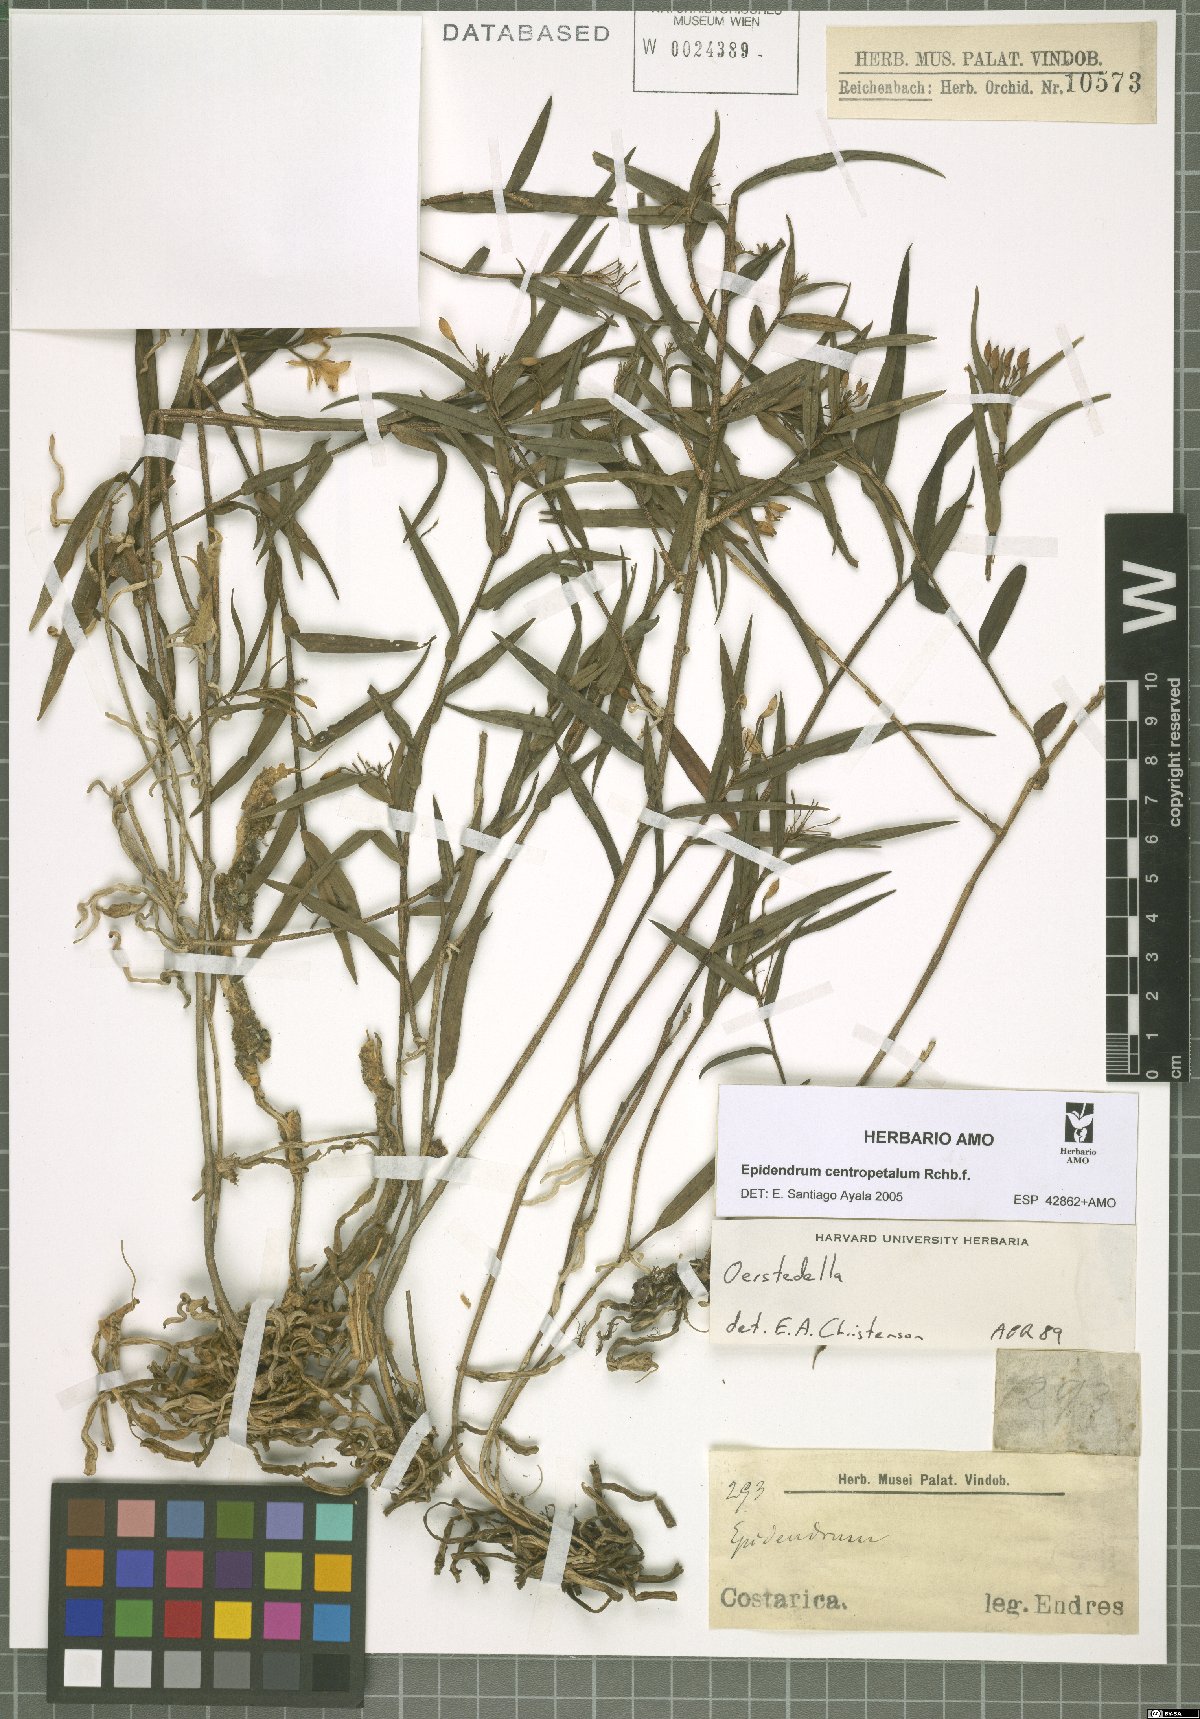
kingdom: Plantae
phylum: Tracheophyta
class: Liliopsida
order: Asparagales
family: Orchidaceae
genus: Epidendrum
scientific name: Epidendrum centropetalum
